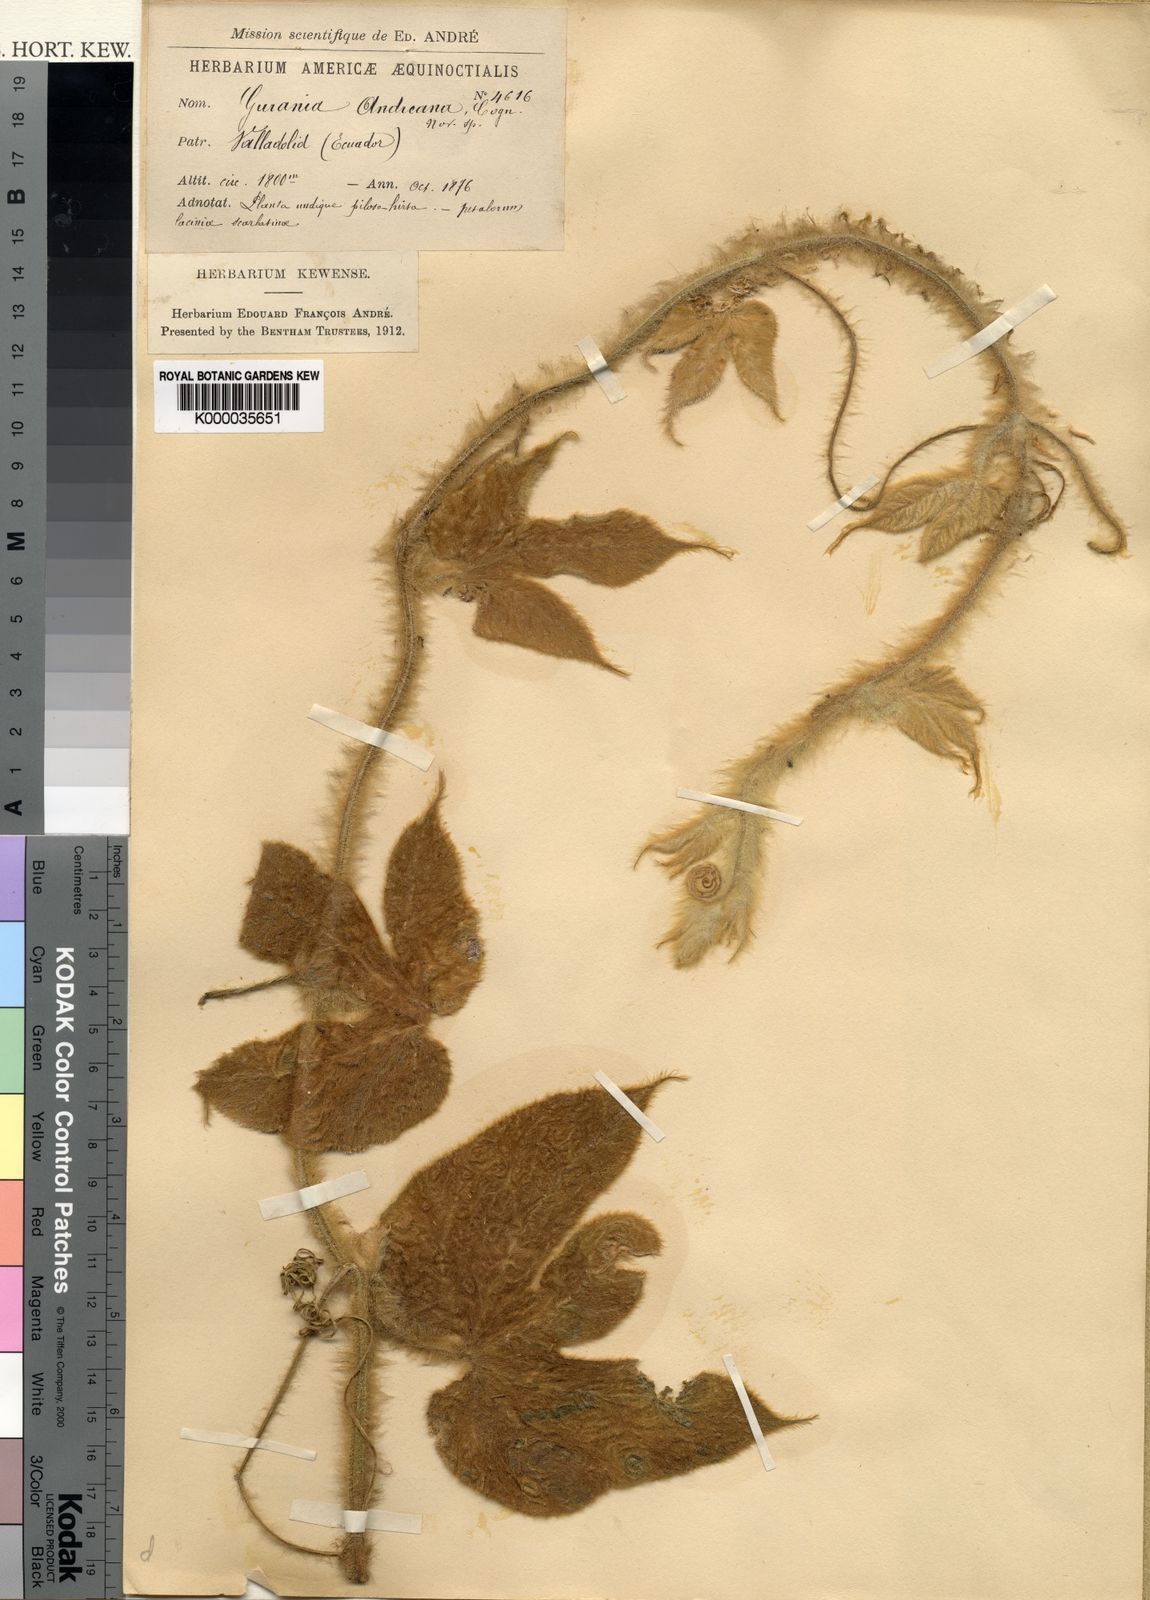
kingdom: Plantae
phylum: Tracheophyta
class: Magnoliopsida
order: Cucurbitales
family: Cucurbitaceae
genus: Gurania
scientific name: Gurania eriantha
